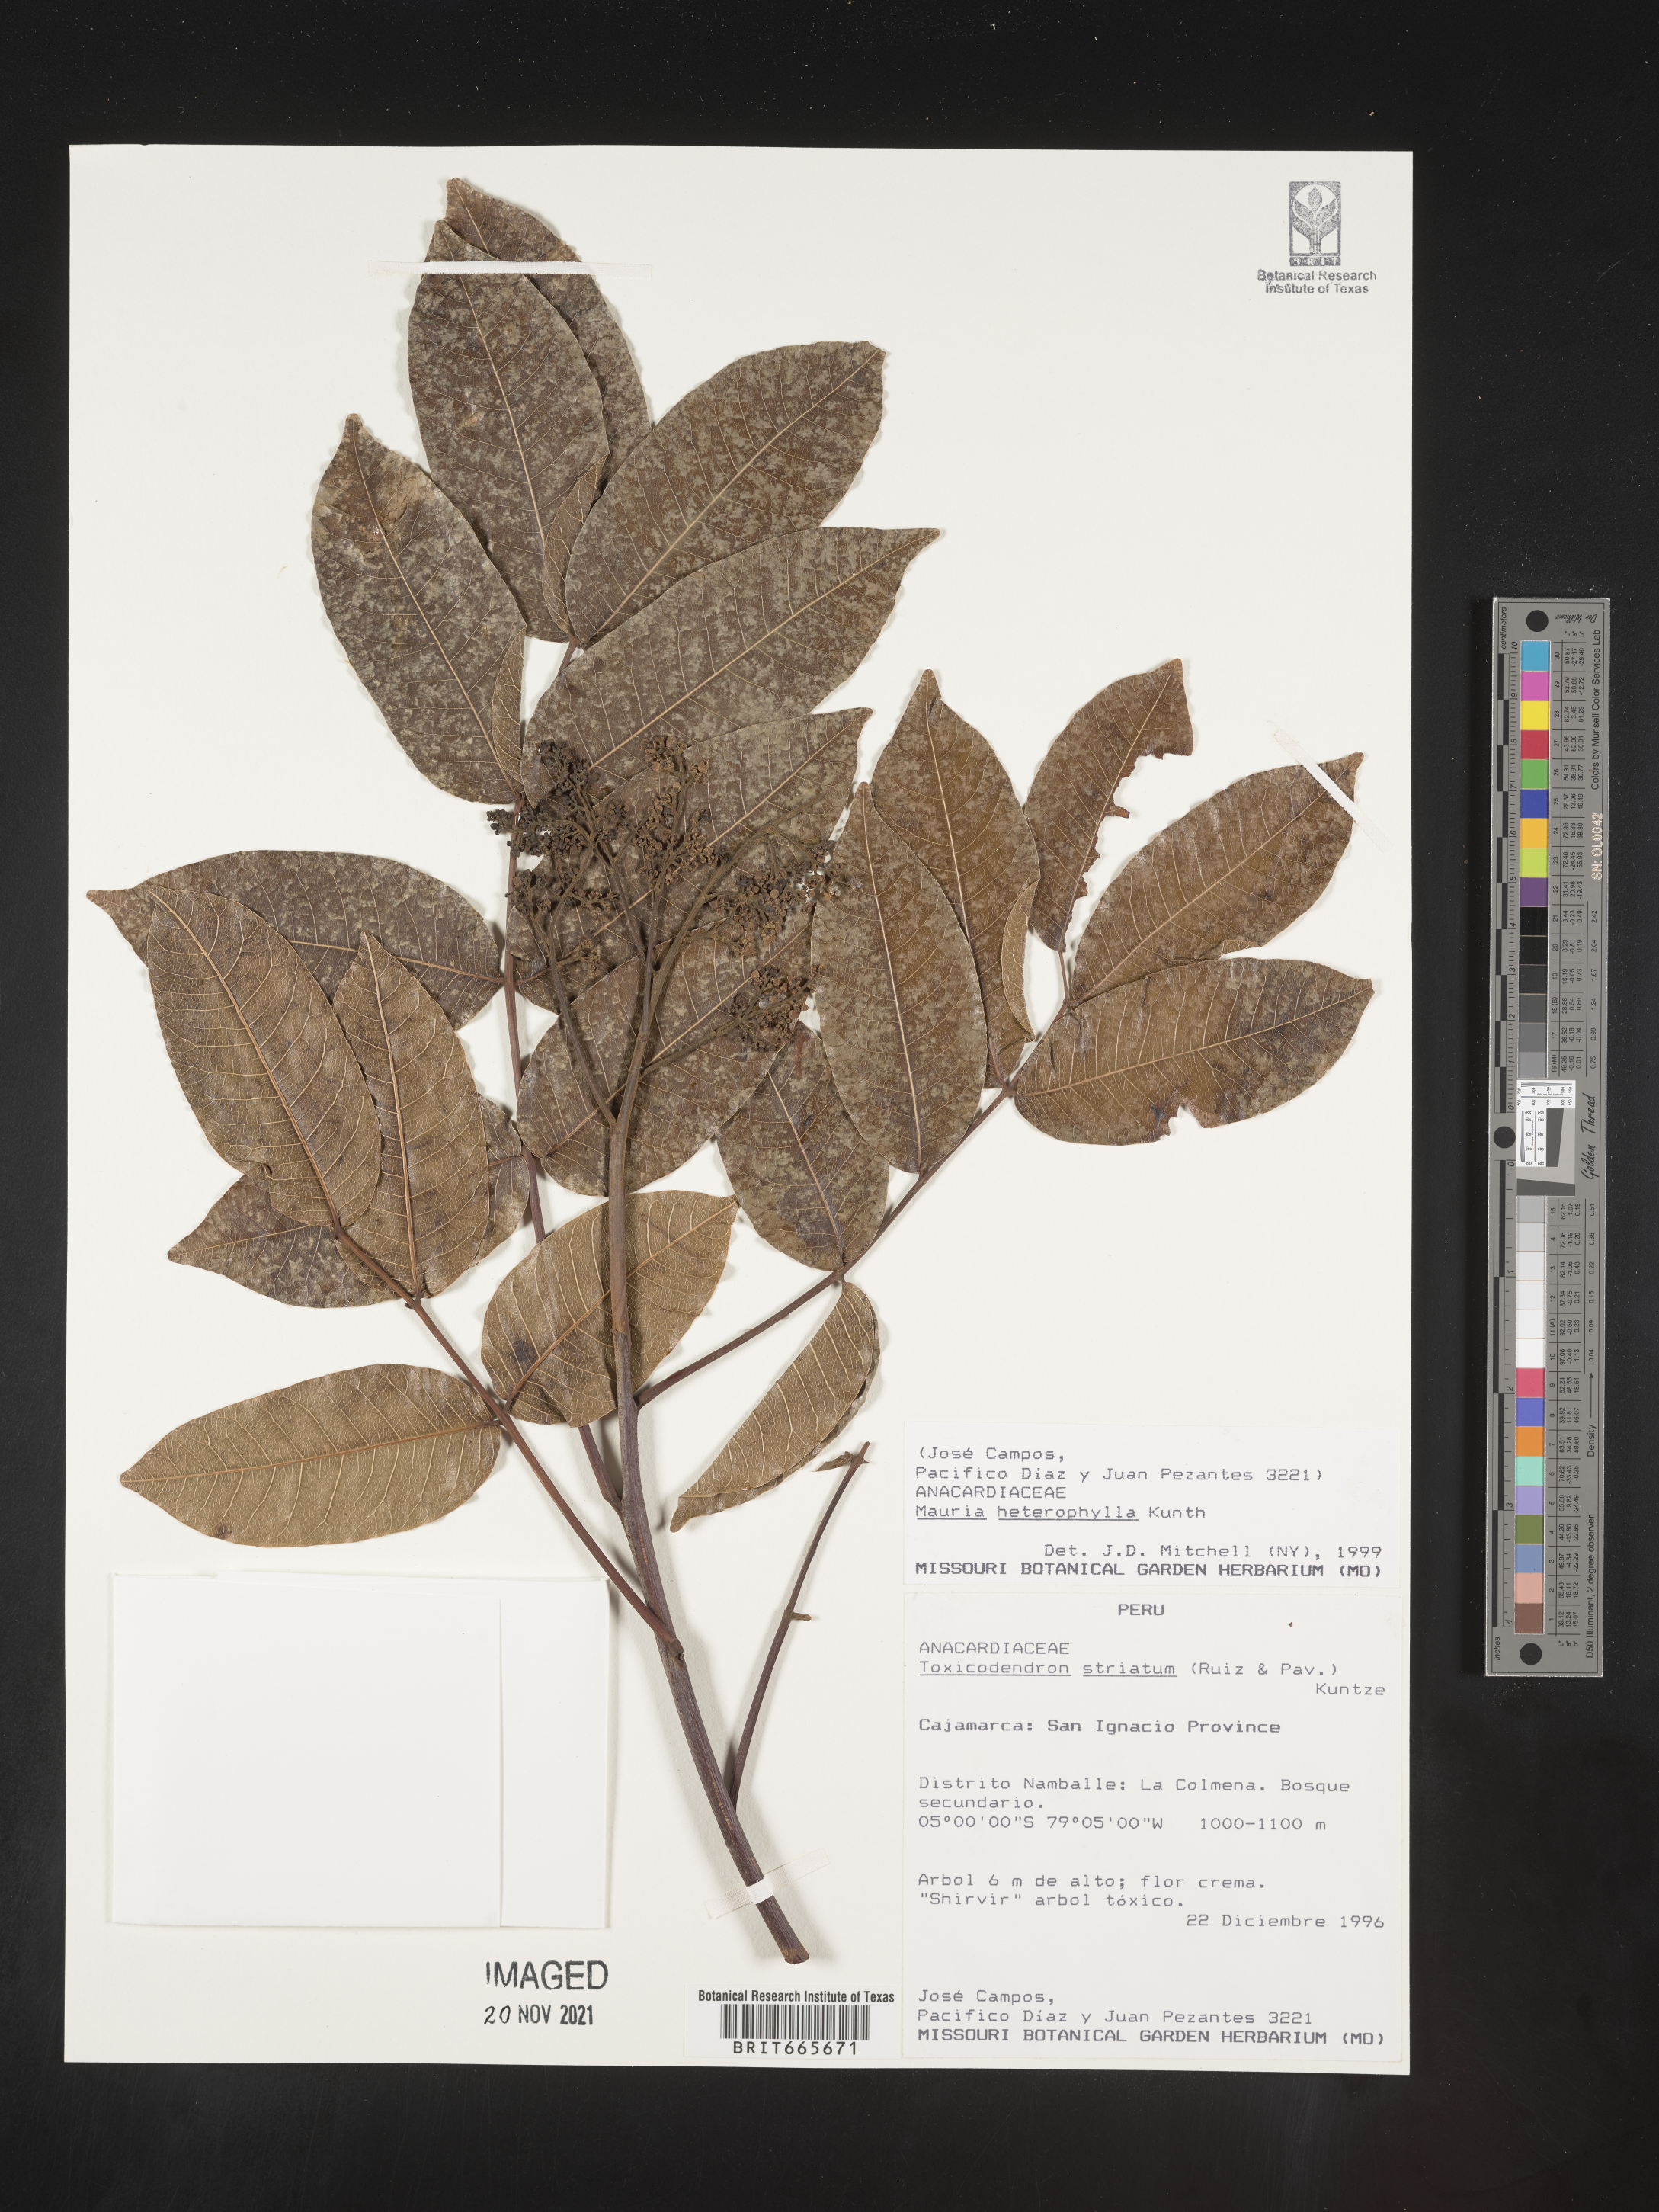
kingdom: Plantae
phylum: Tracheophyta
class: Magnoliopsida
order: Sapindales
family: Anacardiaceae
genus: Mauria
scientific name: Mauria
